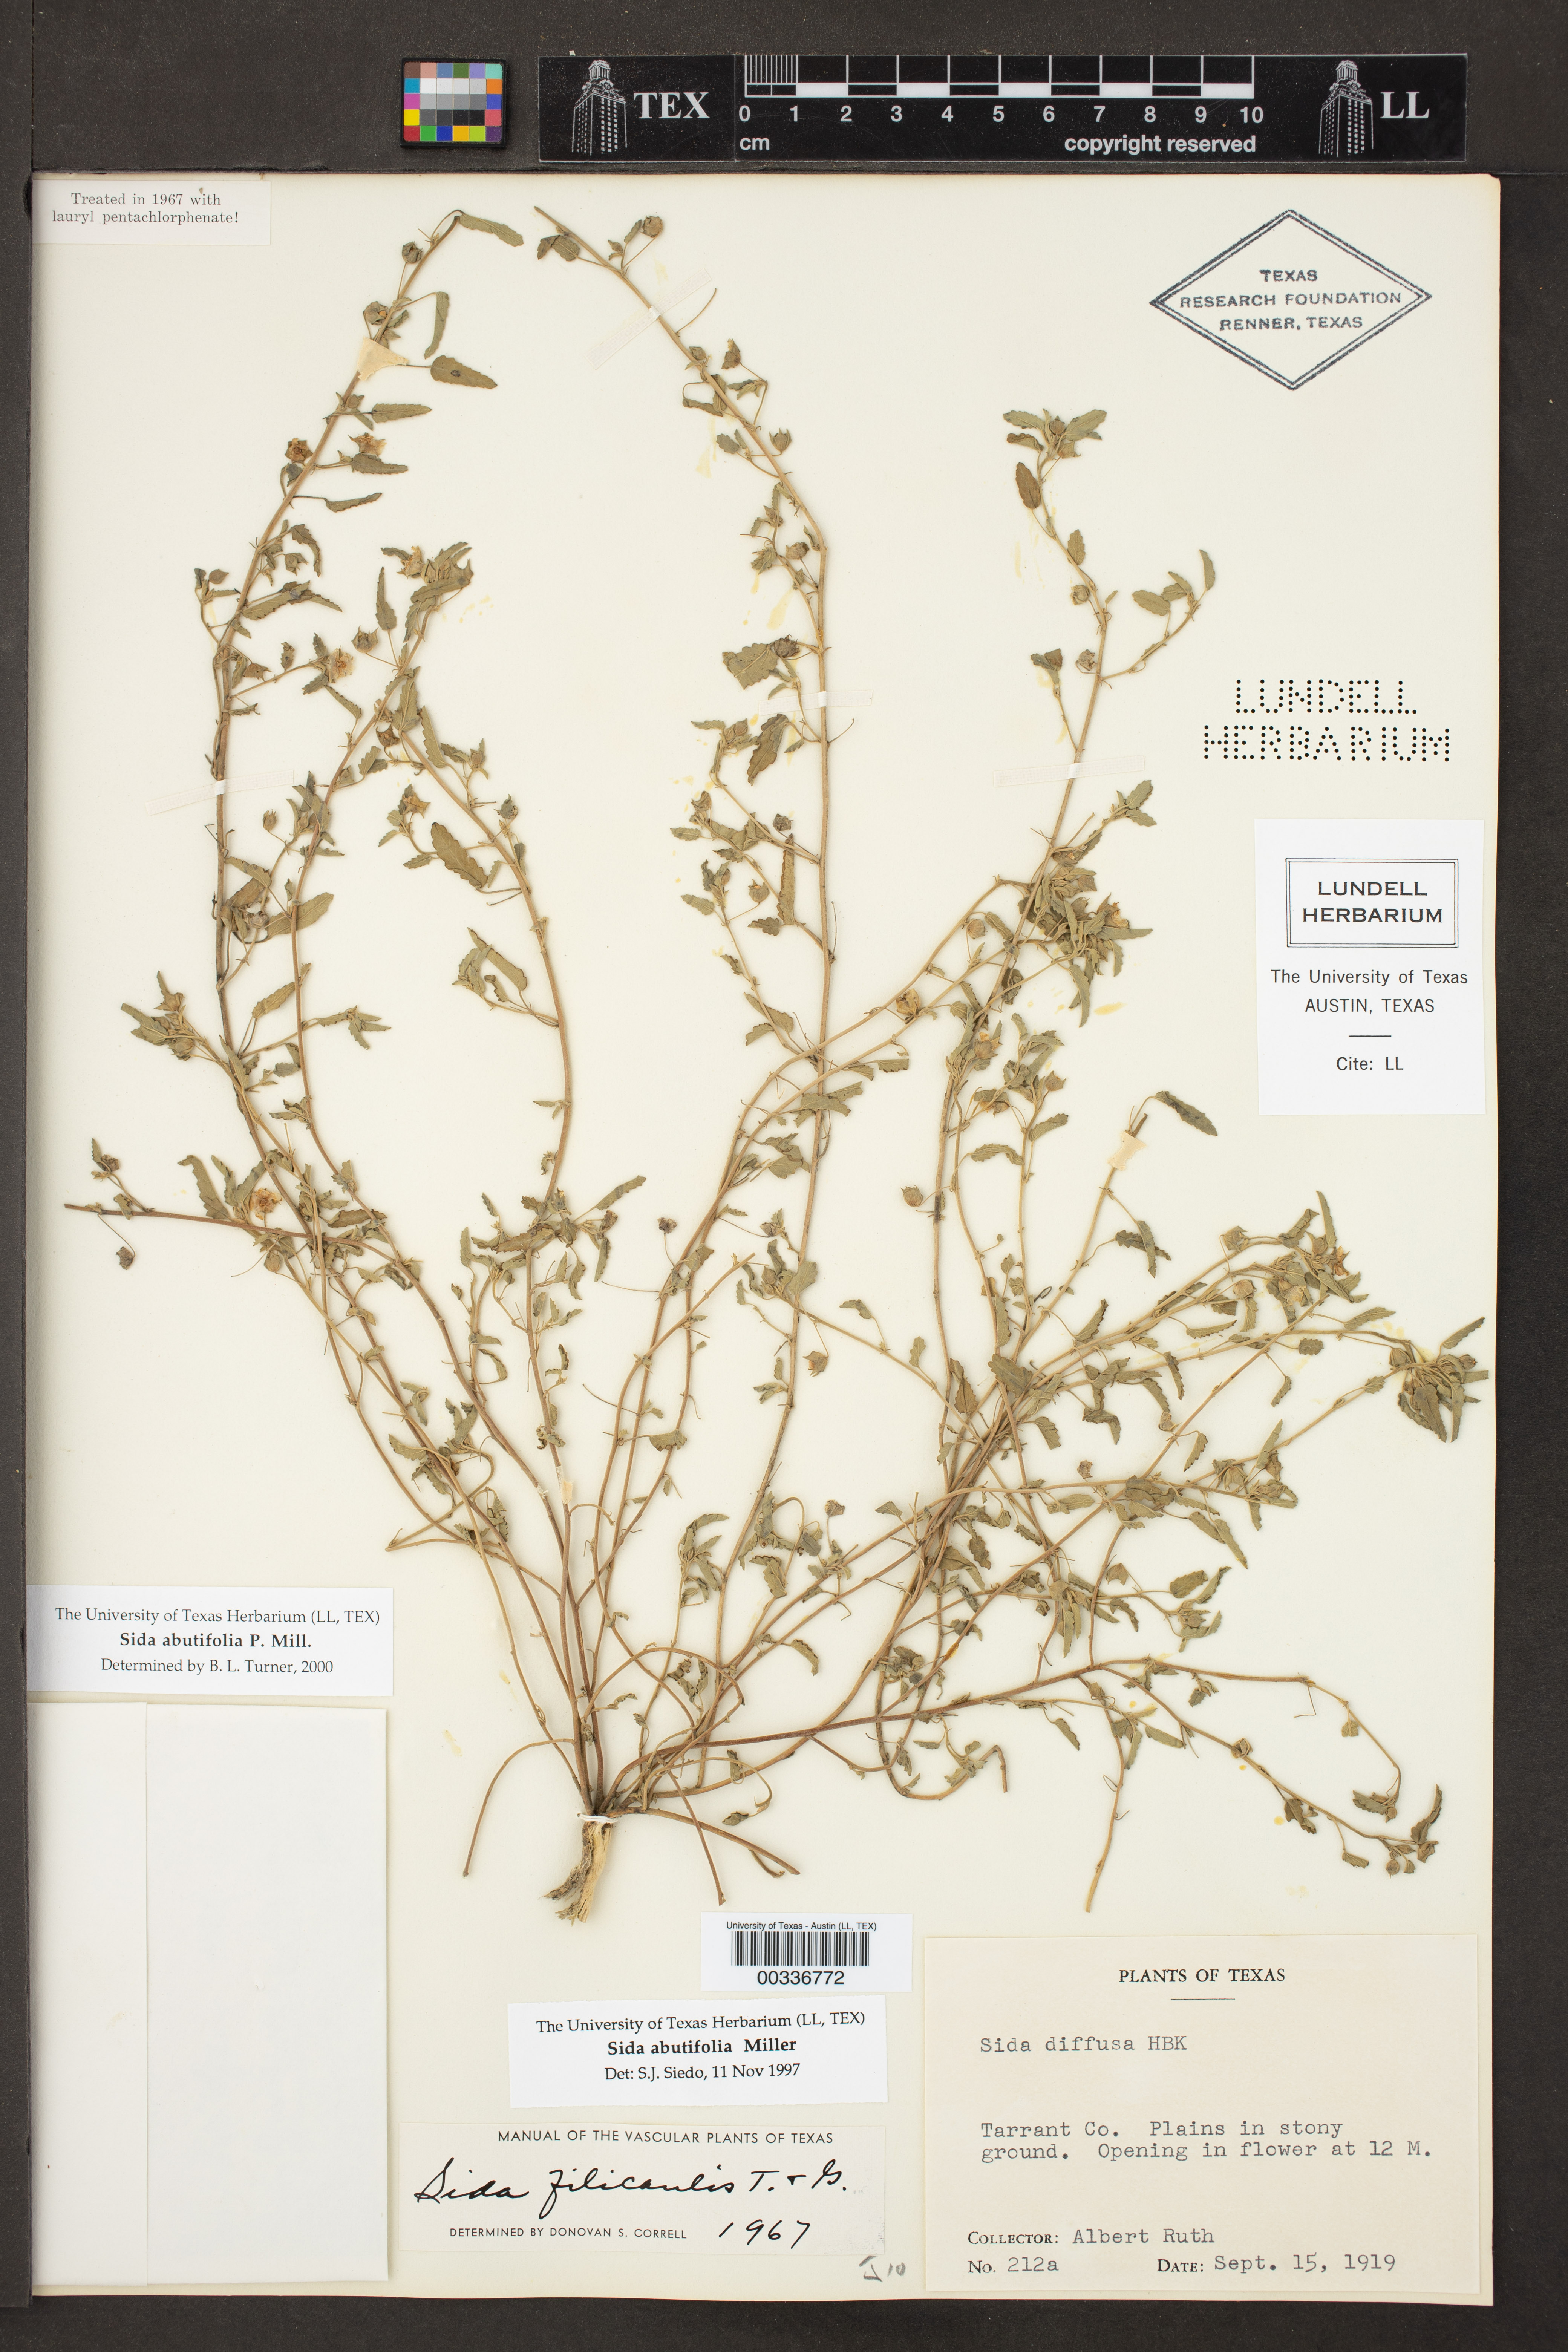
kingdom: Plantae
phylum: Tracheophyta
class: Magnoliopsida
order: Malvales
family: Malvaceae
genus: Sida
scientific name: Sida abutilifolia
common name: Spreading fanpetals
